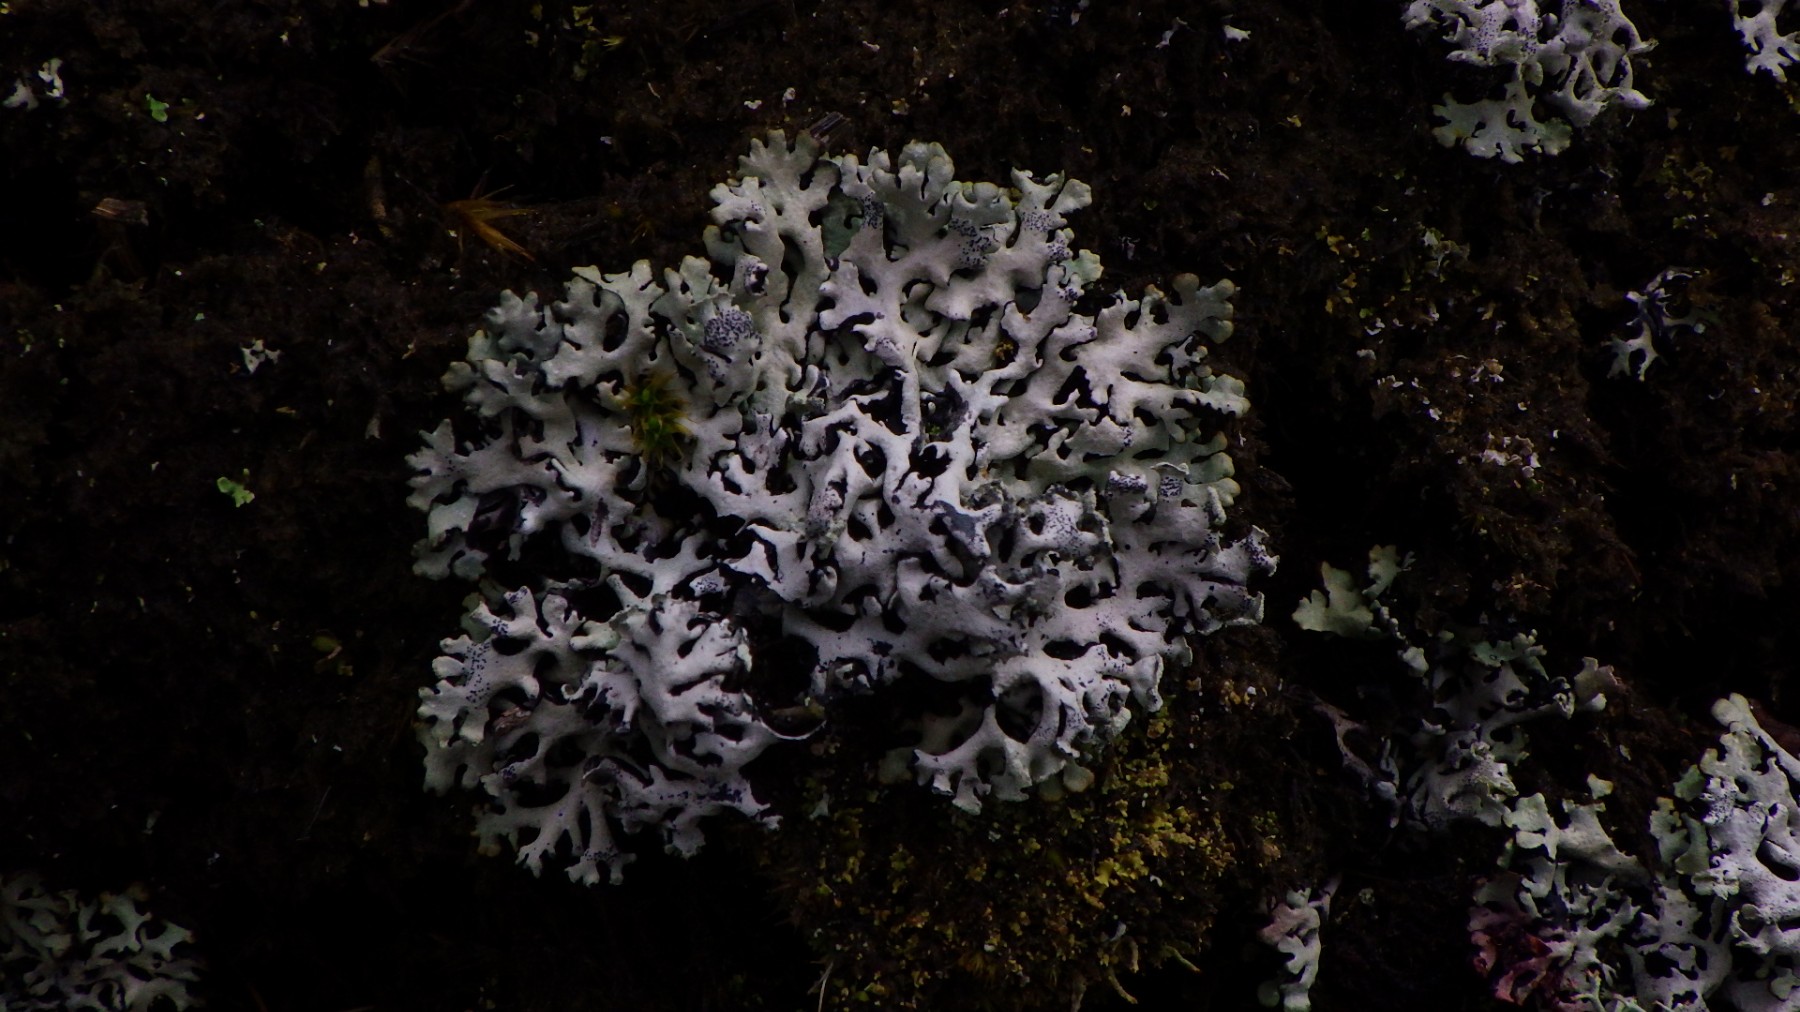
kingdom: Fungi
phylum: Ascomycota
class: Lecanoromycetes
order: Lecanorales
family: Parmeliaceae
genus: Hypogymnia
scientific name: Hypogymnia physodes
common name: almindelig kvistlav
